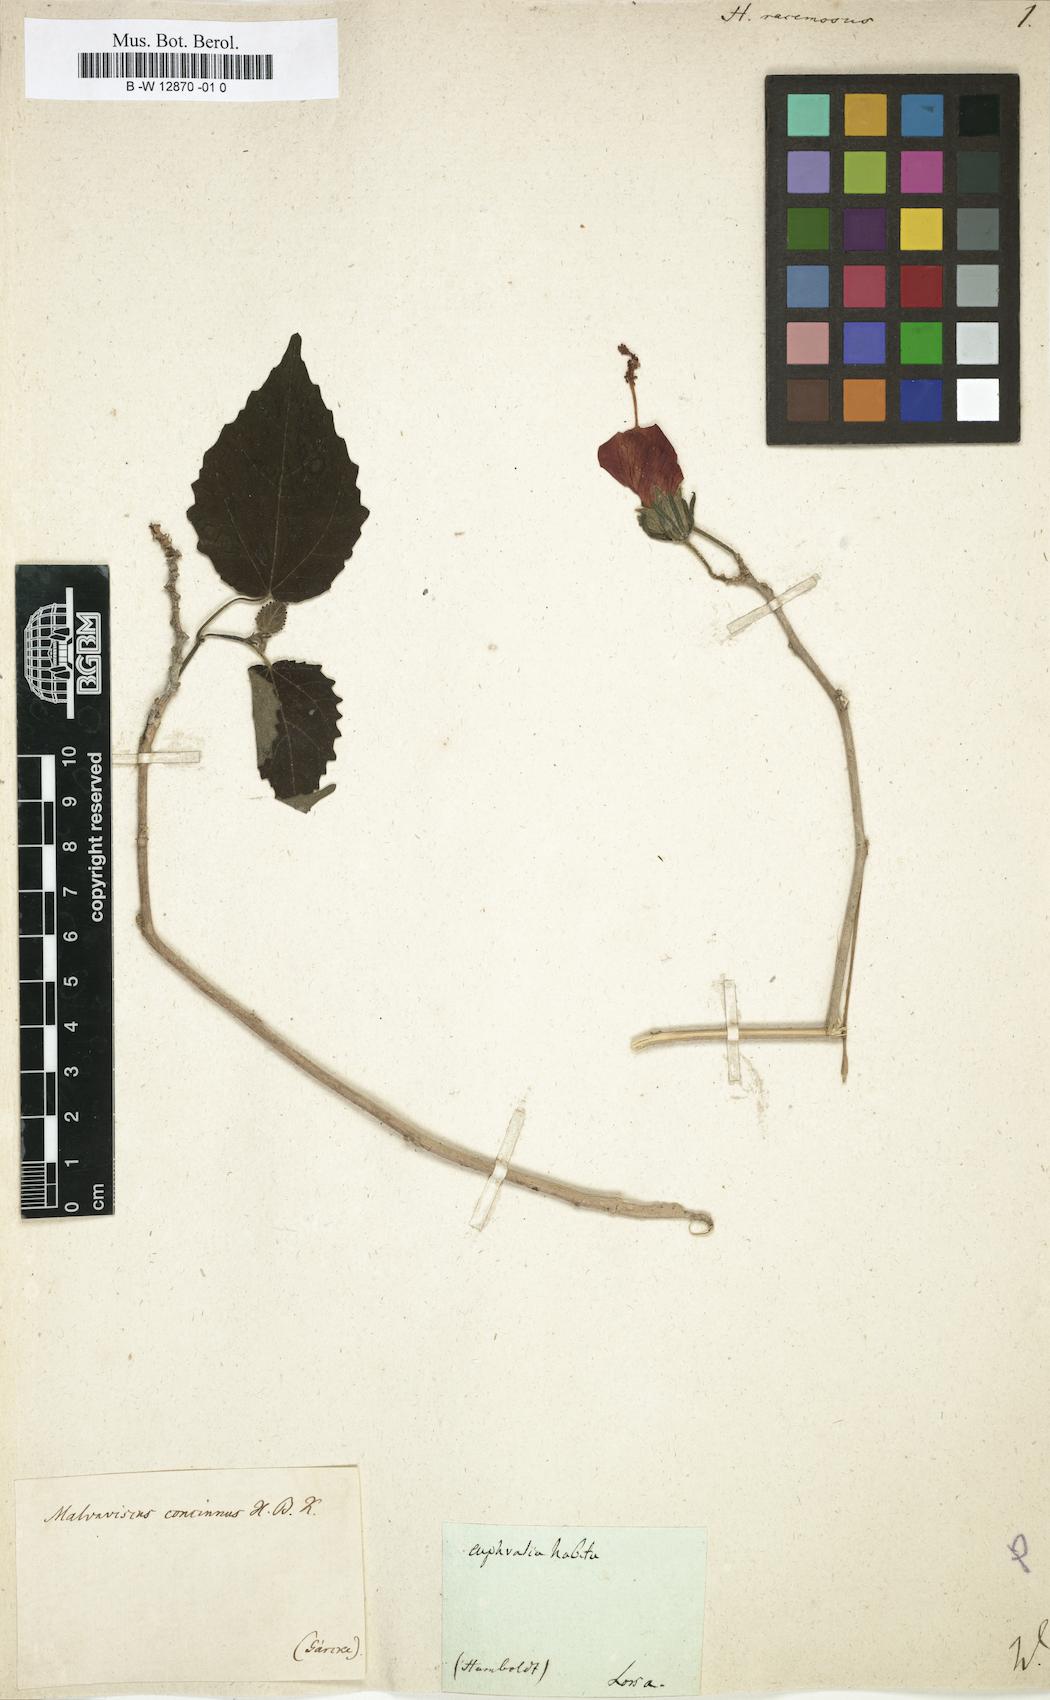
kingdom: Plantae
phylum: Tracheophyta
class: Magnoliopsida
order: Malvales
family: Malvaceae
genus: Malvaviscus
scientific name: Malvaviscus concinnus
